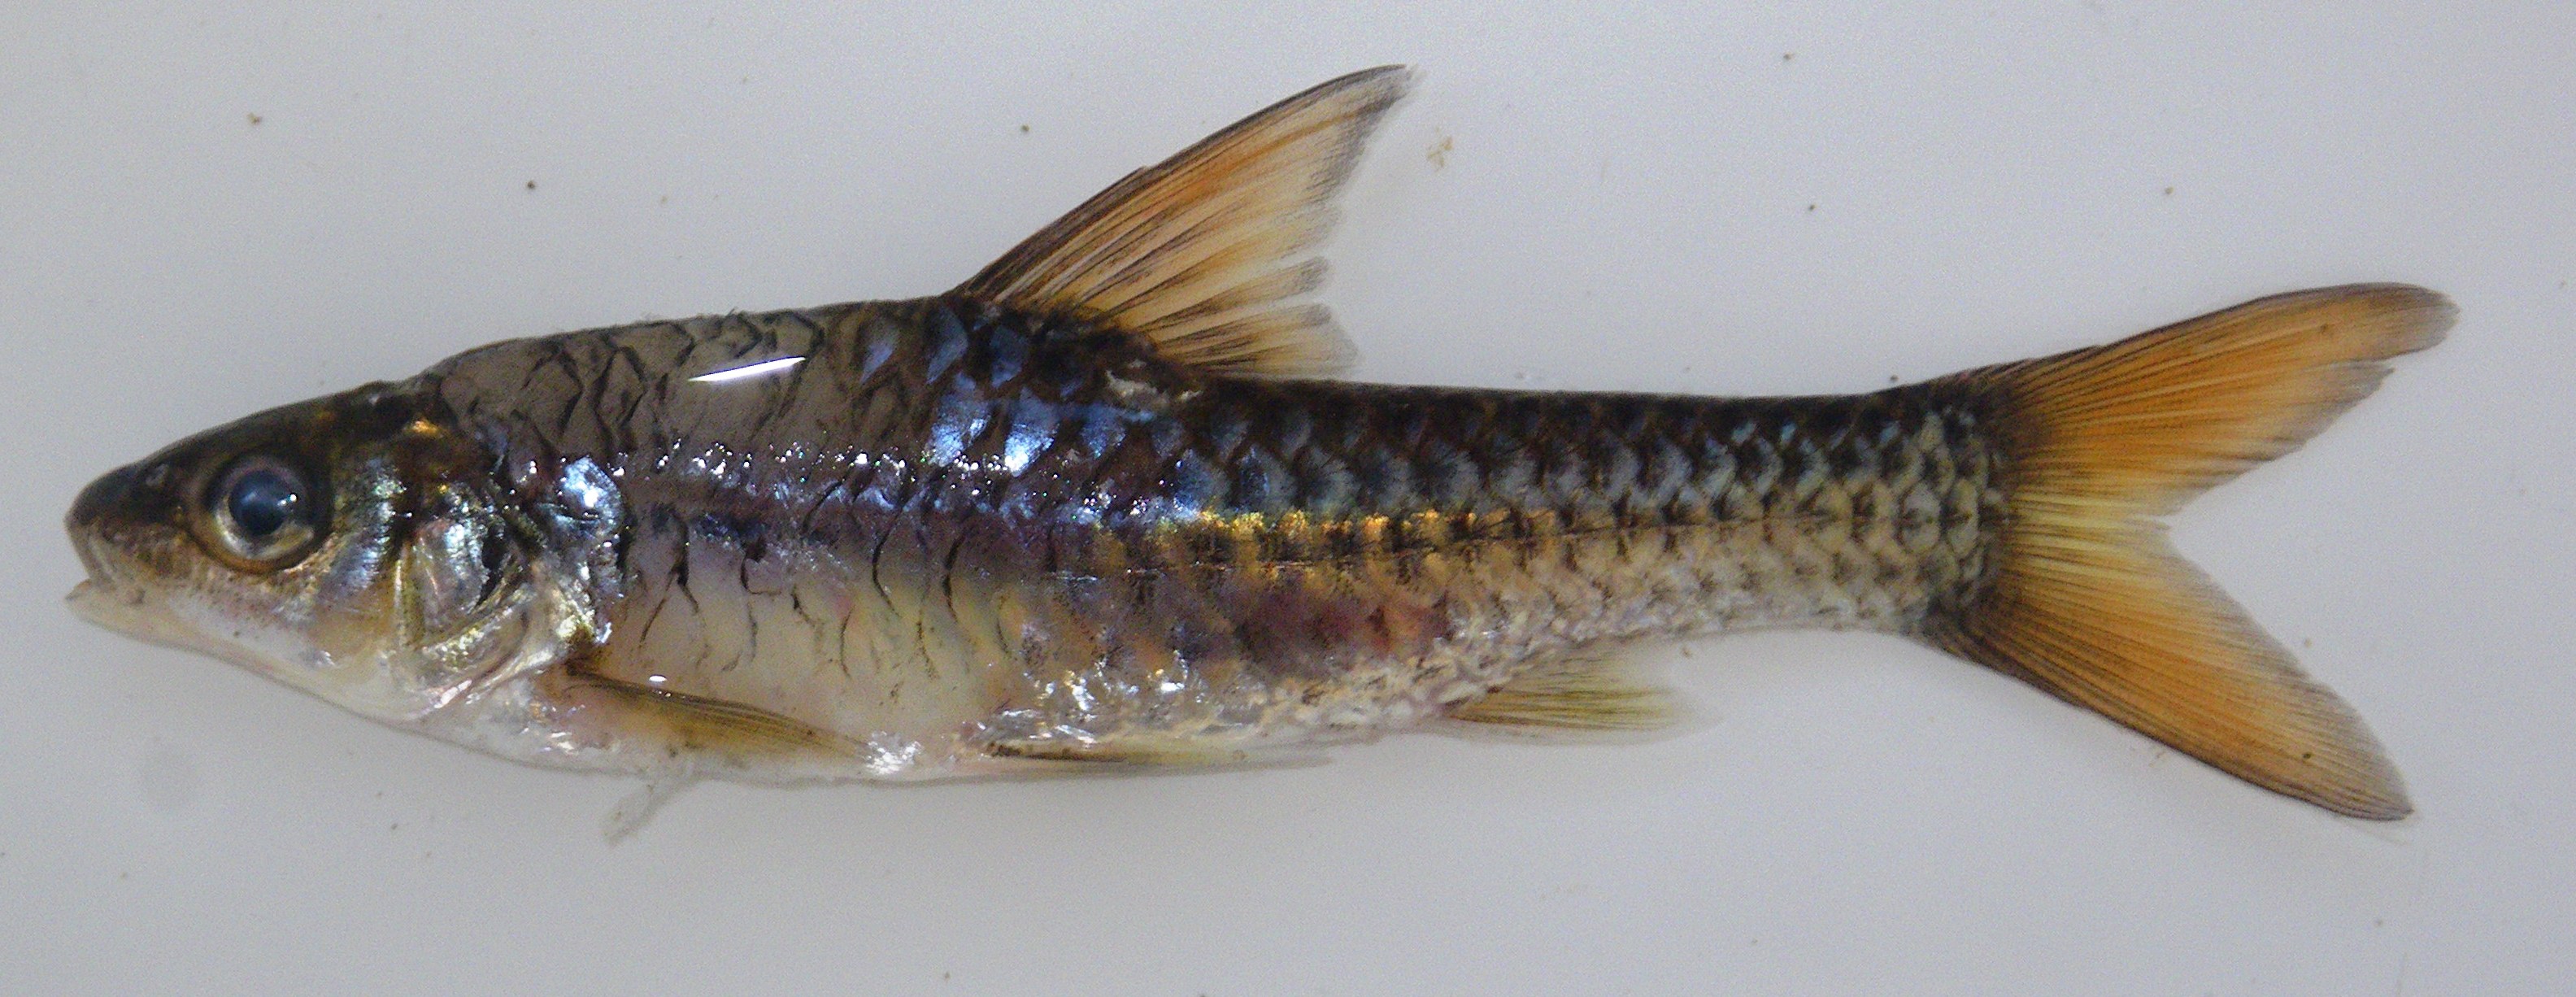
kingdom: Animalia
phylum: Chordata
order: Cypriniformes
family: Cyprinidae
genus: Enteromius
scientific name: Enteromius radiatus
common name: Beira barb
